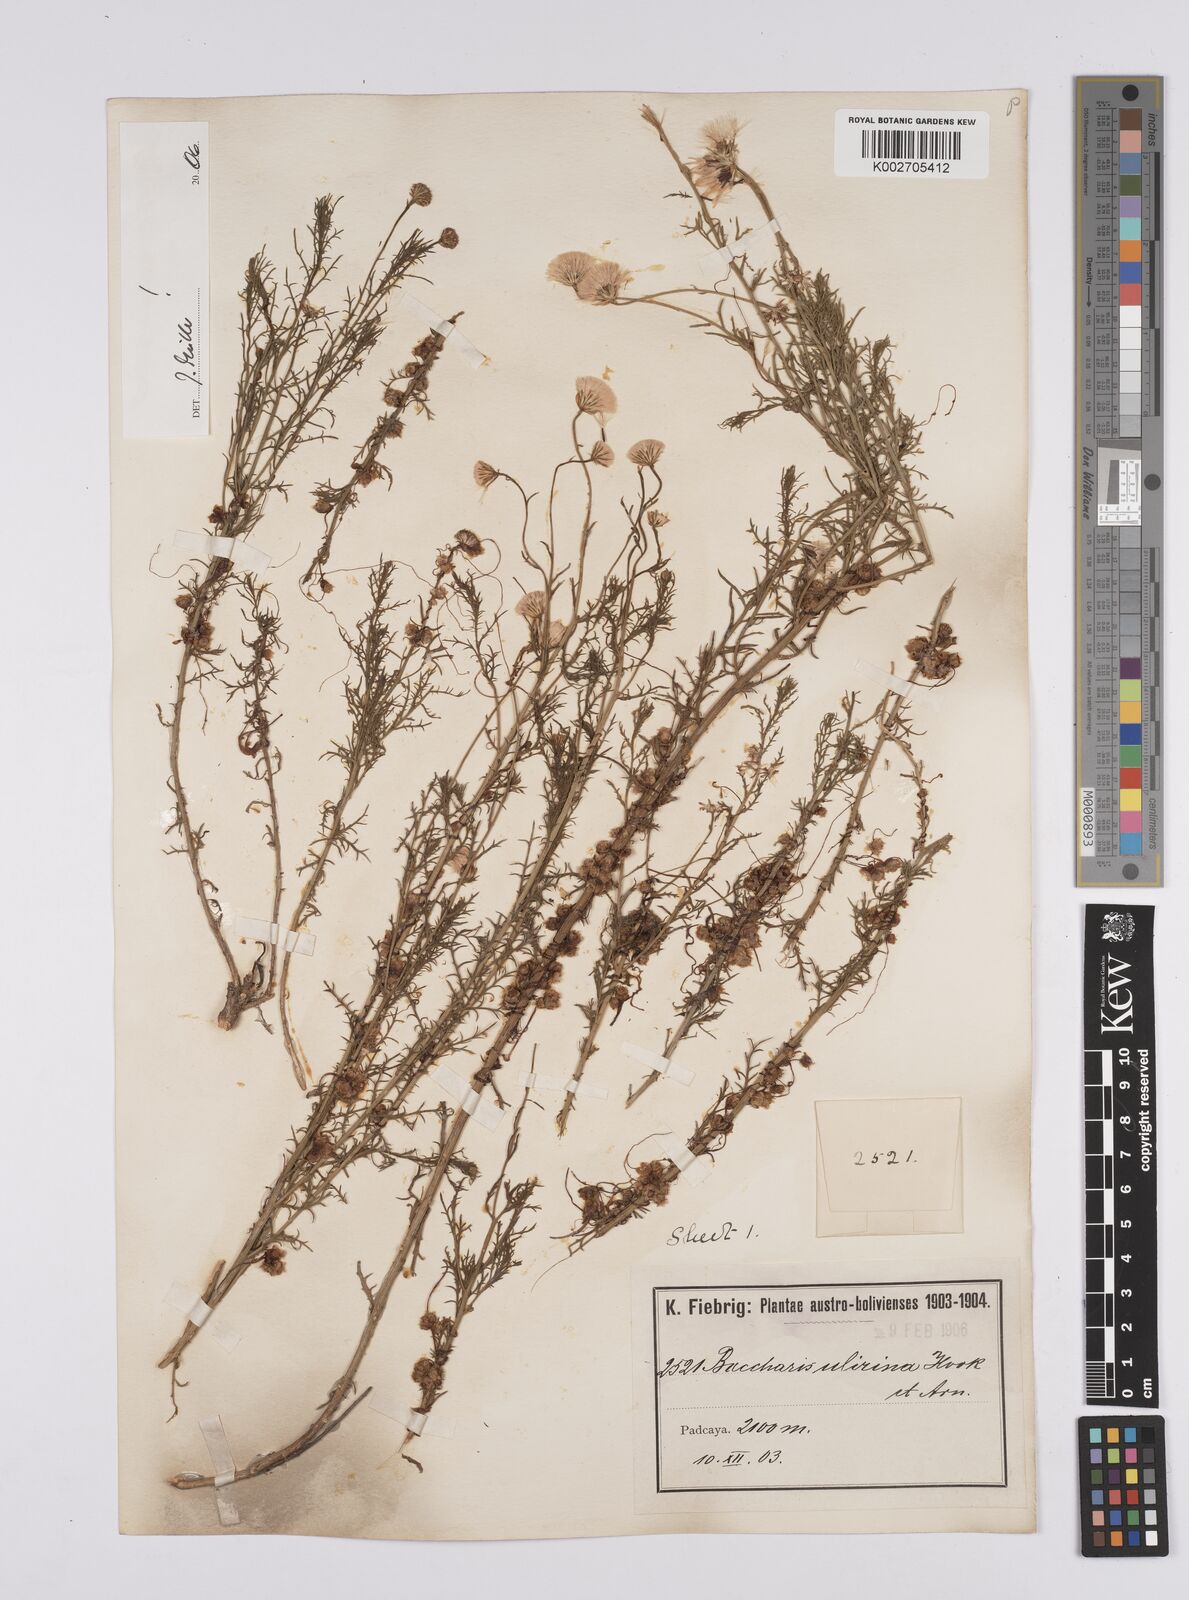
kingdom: Plantae
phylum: Tracheophyta
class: Magnoliopsida
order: Asterales
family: Asteraceae
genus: Baccharis
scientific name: Baccharis ulicina
